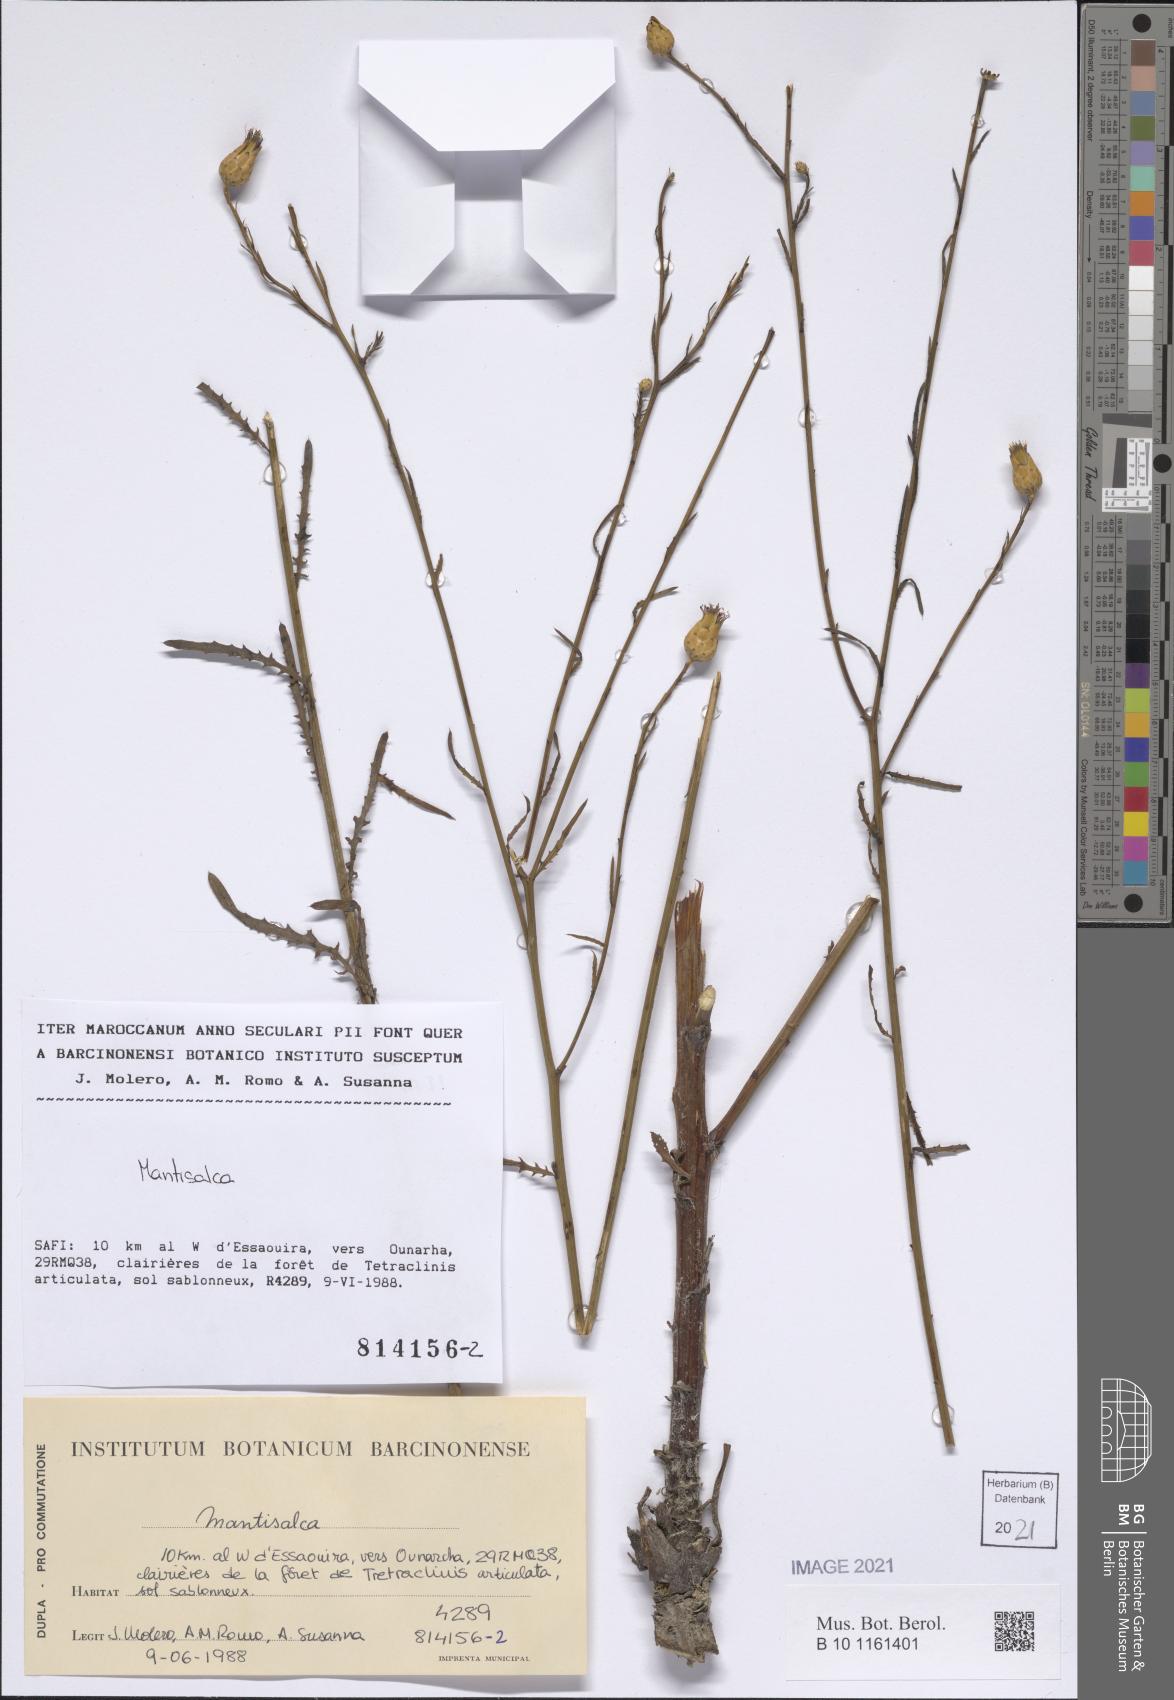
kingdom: Plantae
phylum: Tracheophyta
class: Magnoliopsida
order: Asterales
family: Asteraceae
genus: Mantisalca
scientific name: Mantisalca
